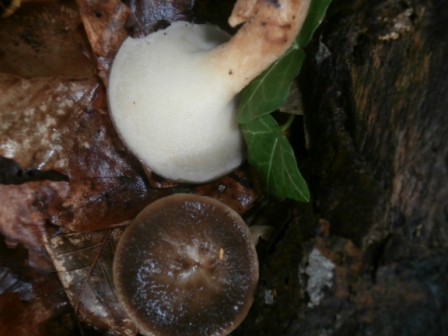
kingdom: Fungi
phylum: Basidiomycota
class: Agaricomycetes
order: Polyporales
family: Polyporaceae
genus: Lentinus
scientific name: Lentinus brumalis
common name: vinter-stilkporesvamp
